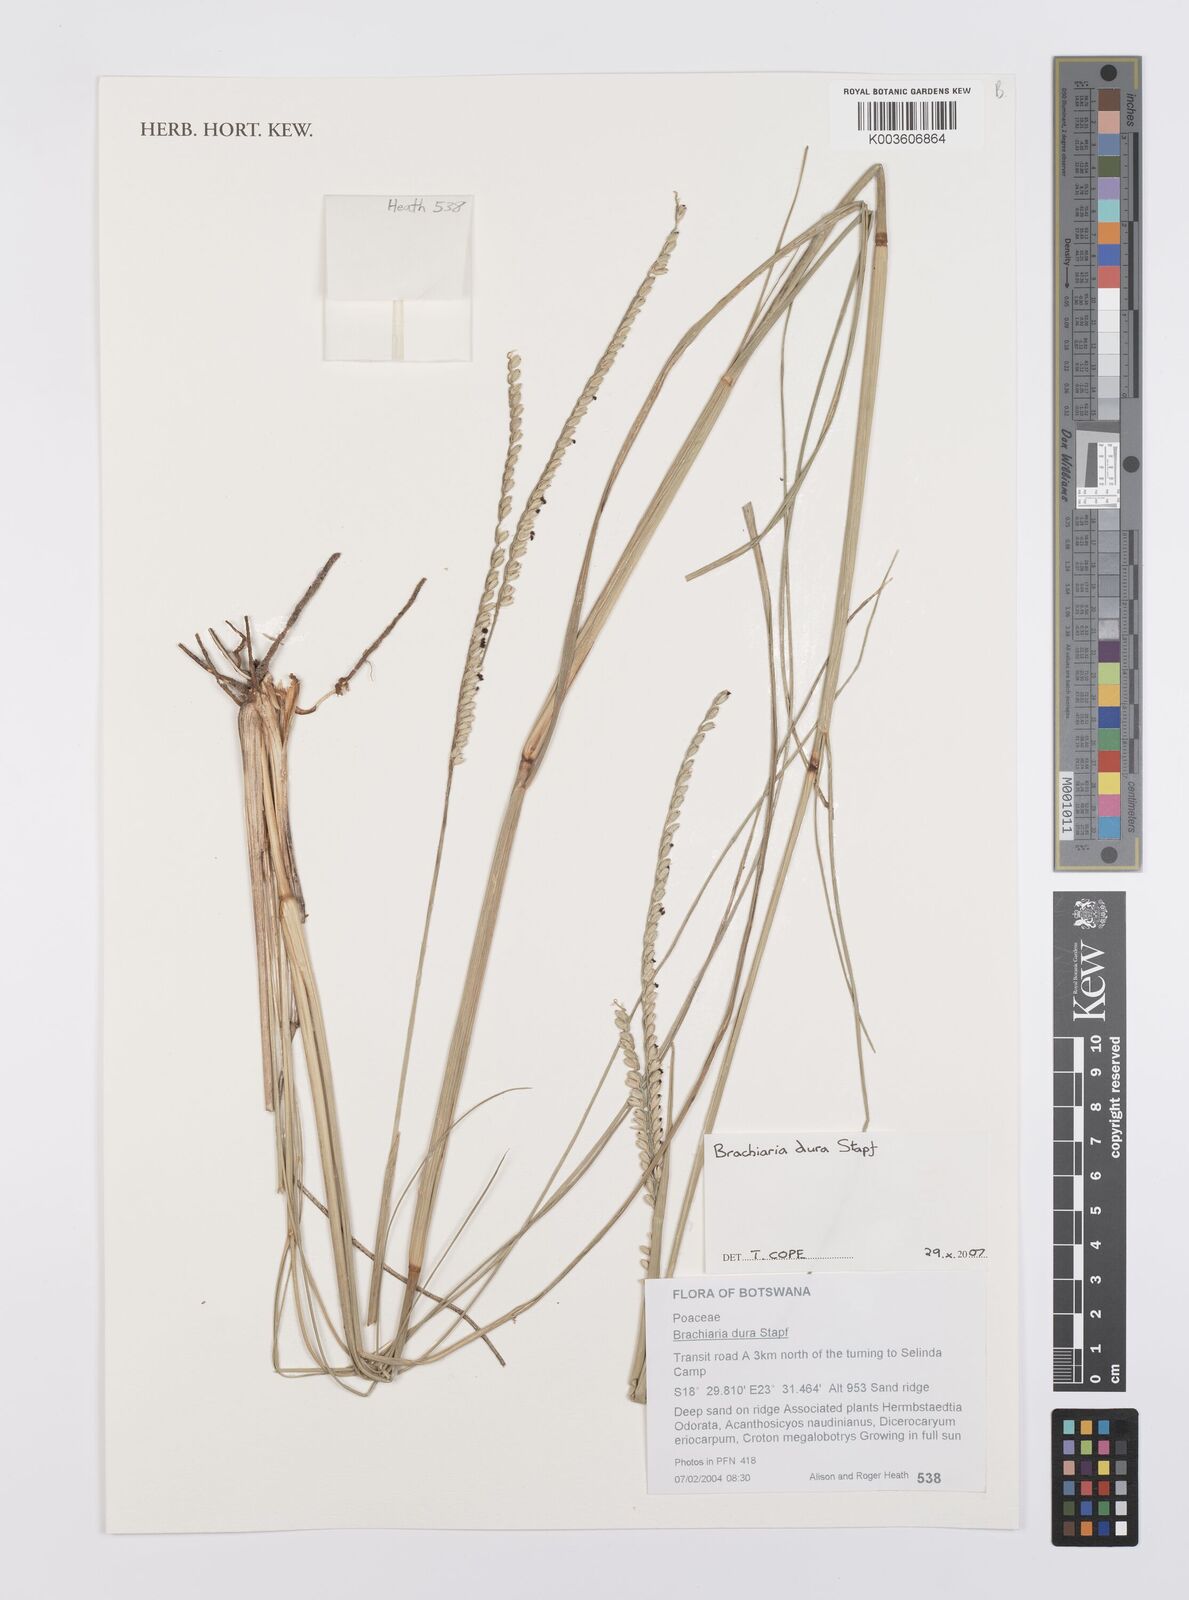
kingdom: Plantae
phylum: Tracheophyta
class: Liliopsida
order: Poales
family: Poaceae
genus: Urochloa
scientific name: Urochloa dura
